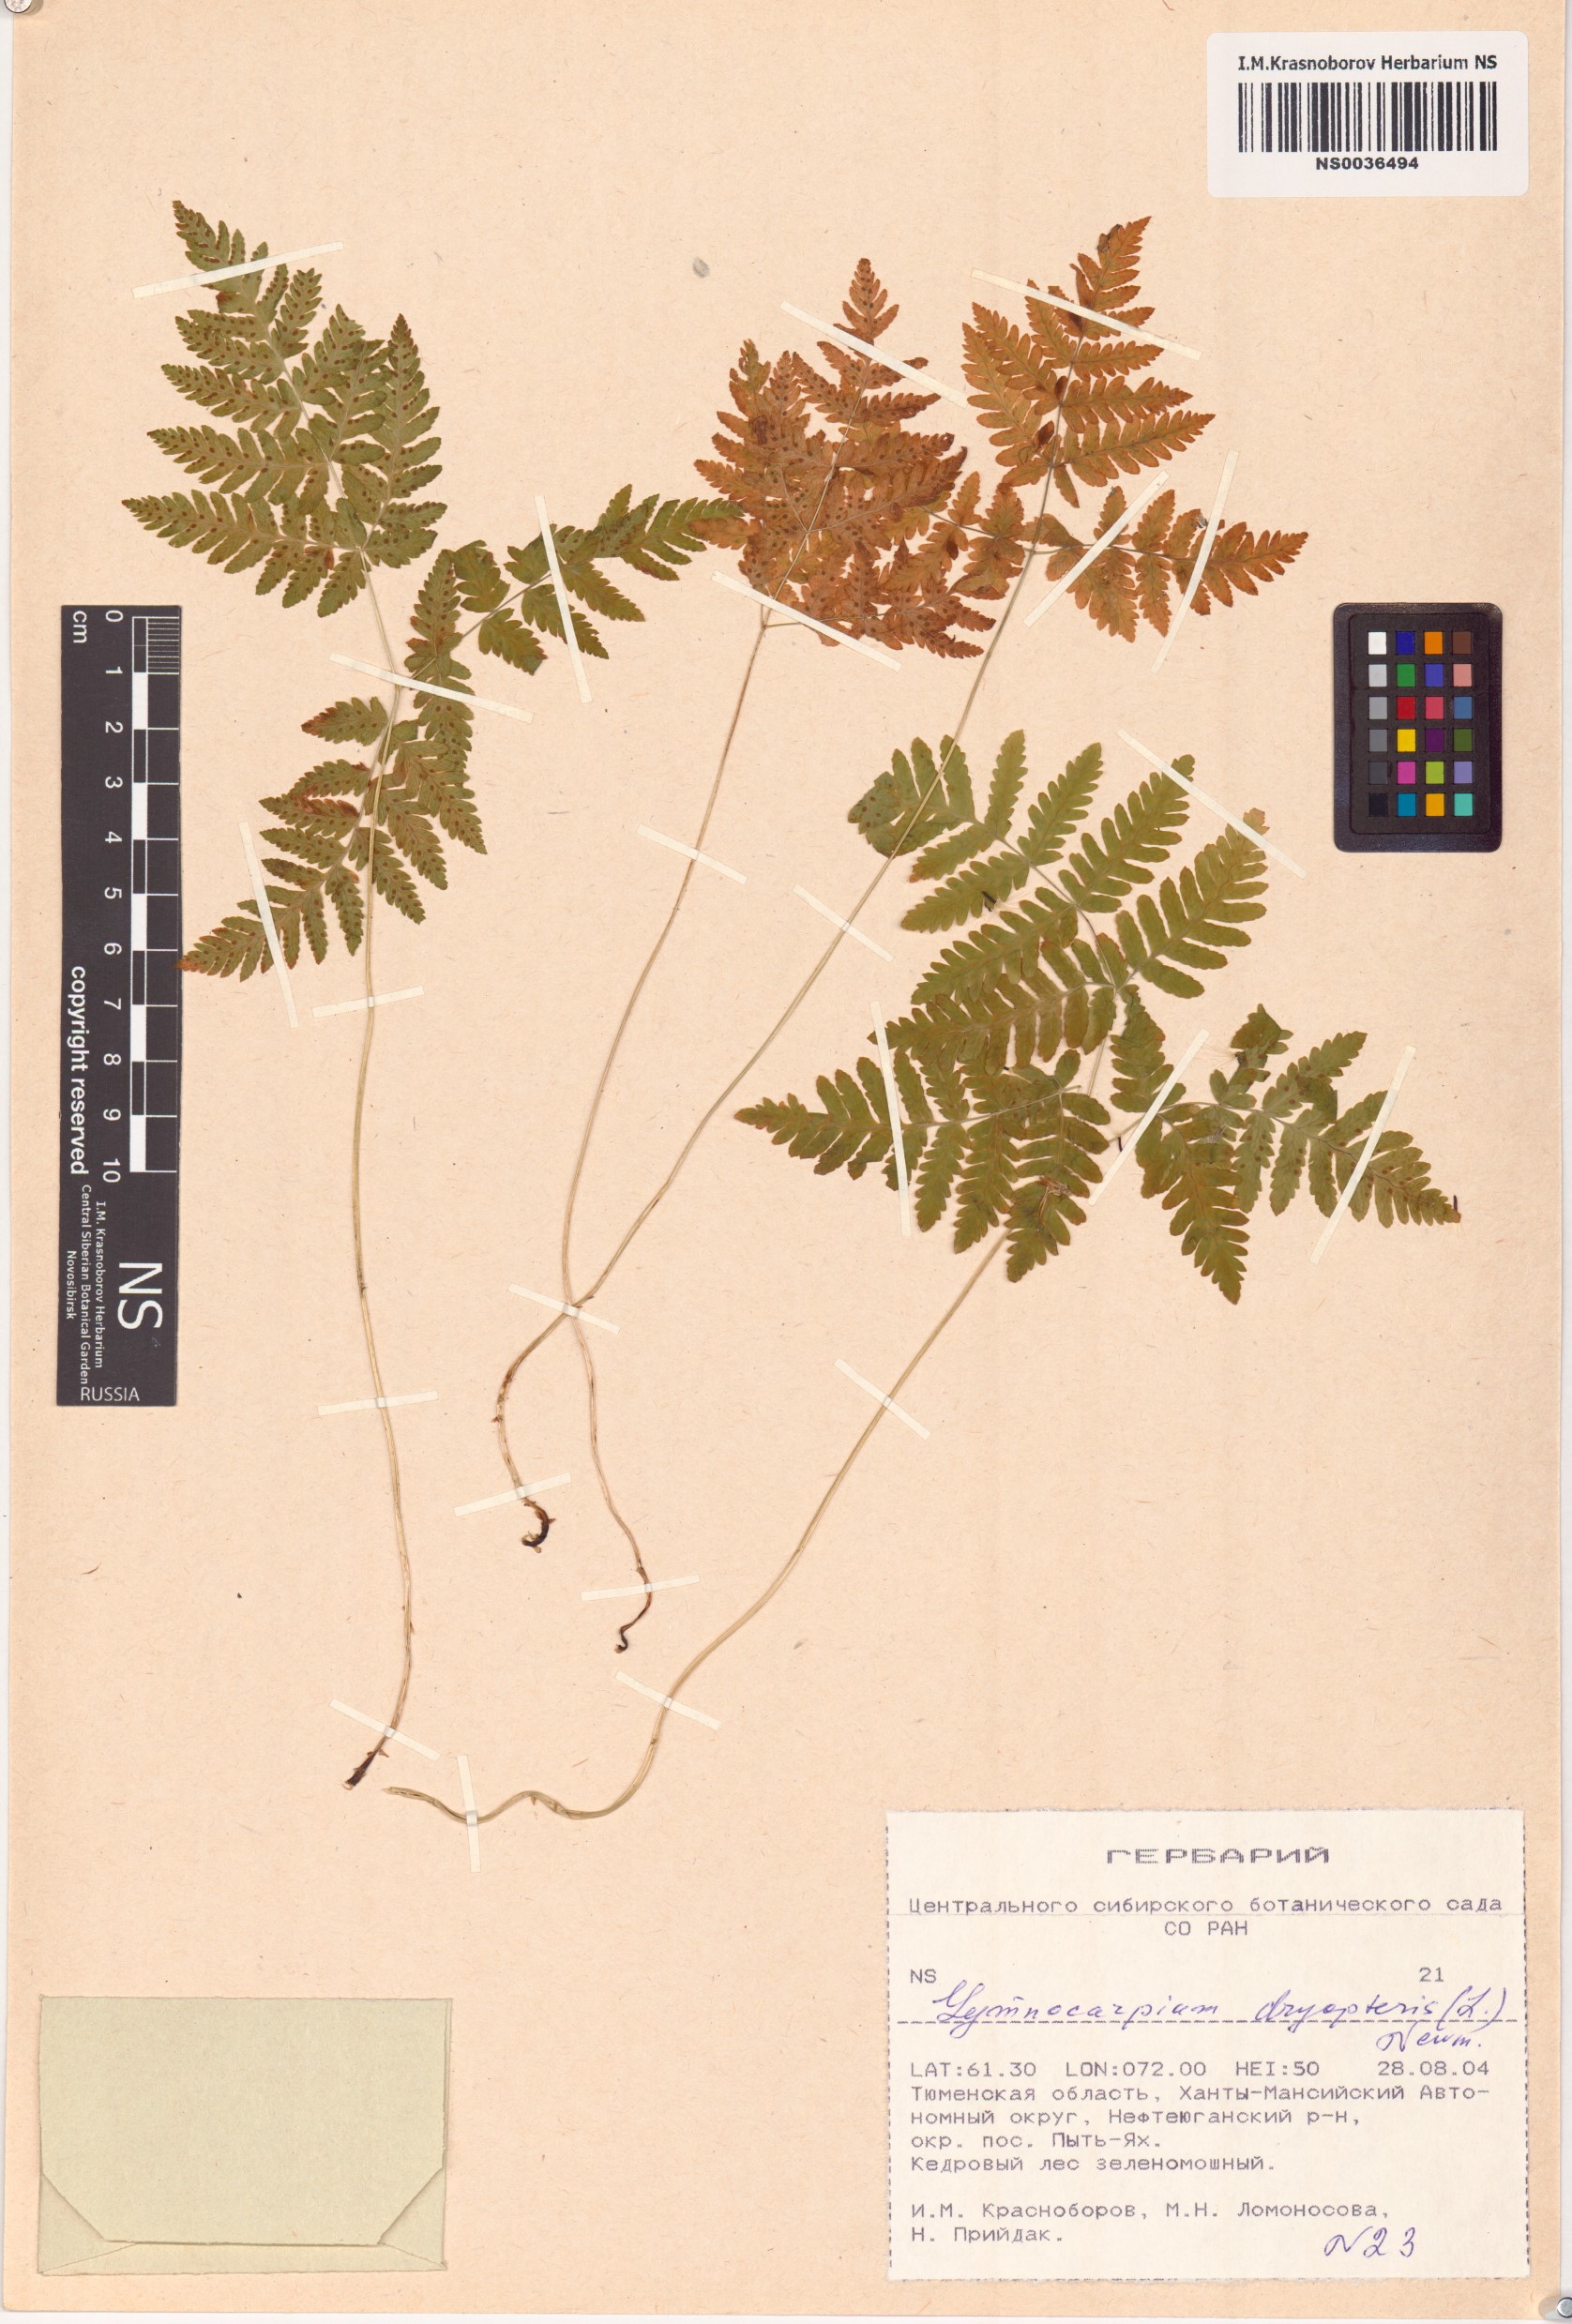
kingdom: Plantae
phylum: Tracheophyta
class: Polypodiopsida
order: Polypodiales
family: Cystopteridaceae
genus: Gymnocarpium
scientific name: Gymnocarpium dryopteris
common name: Oak fern
